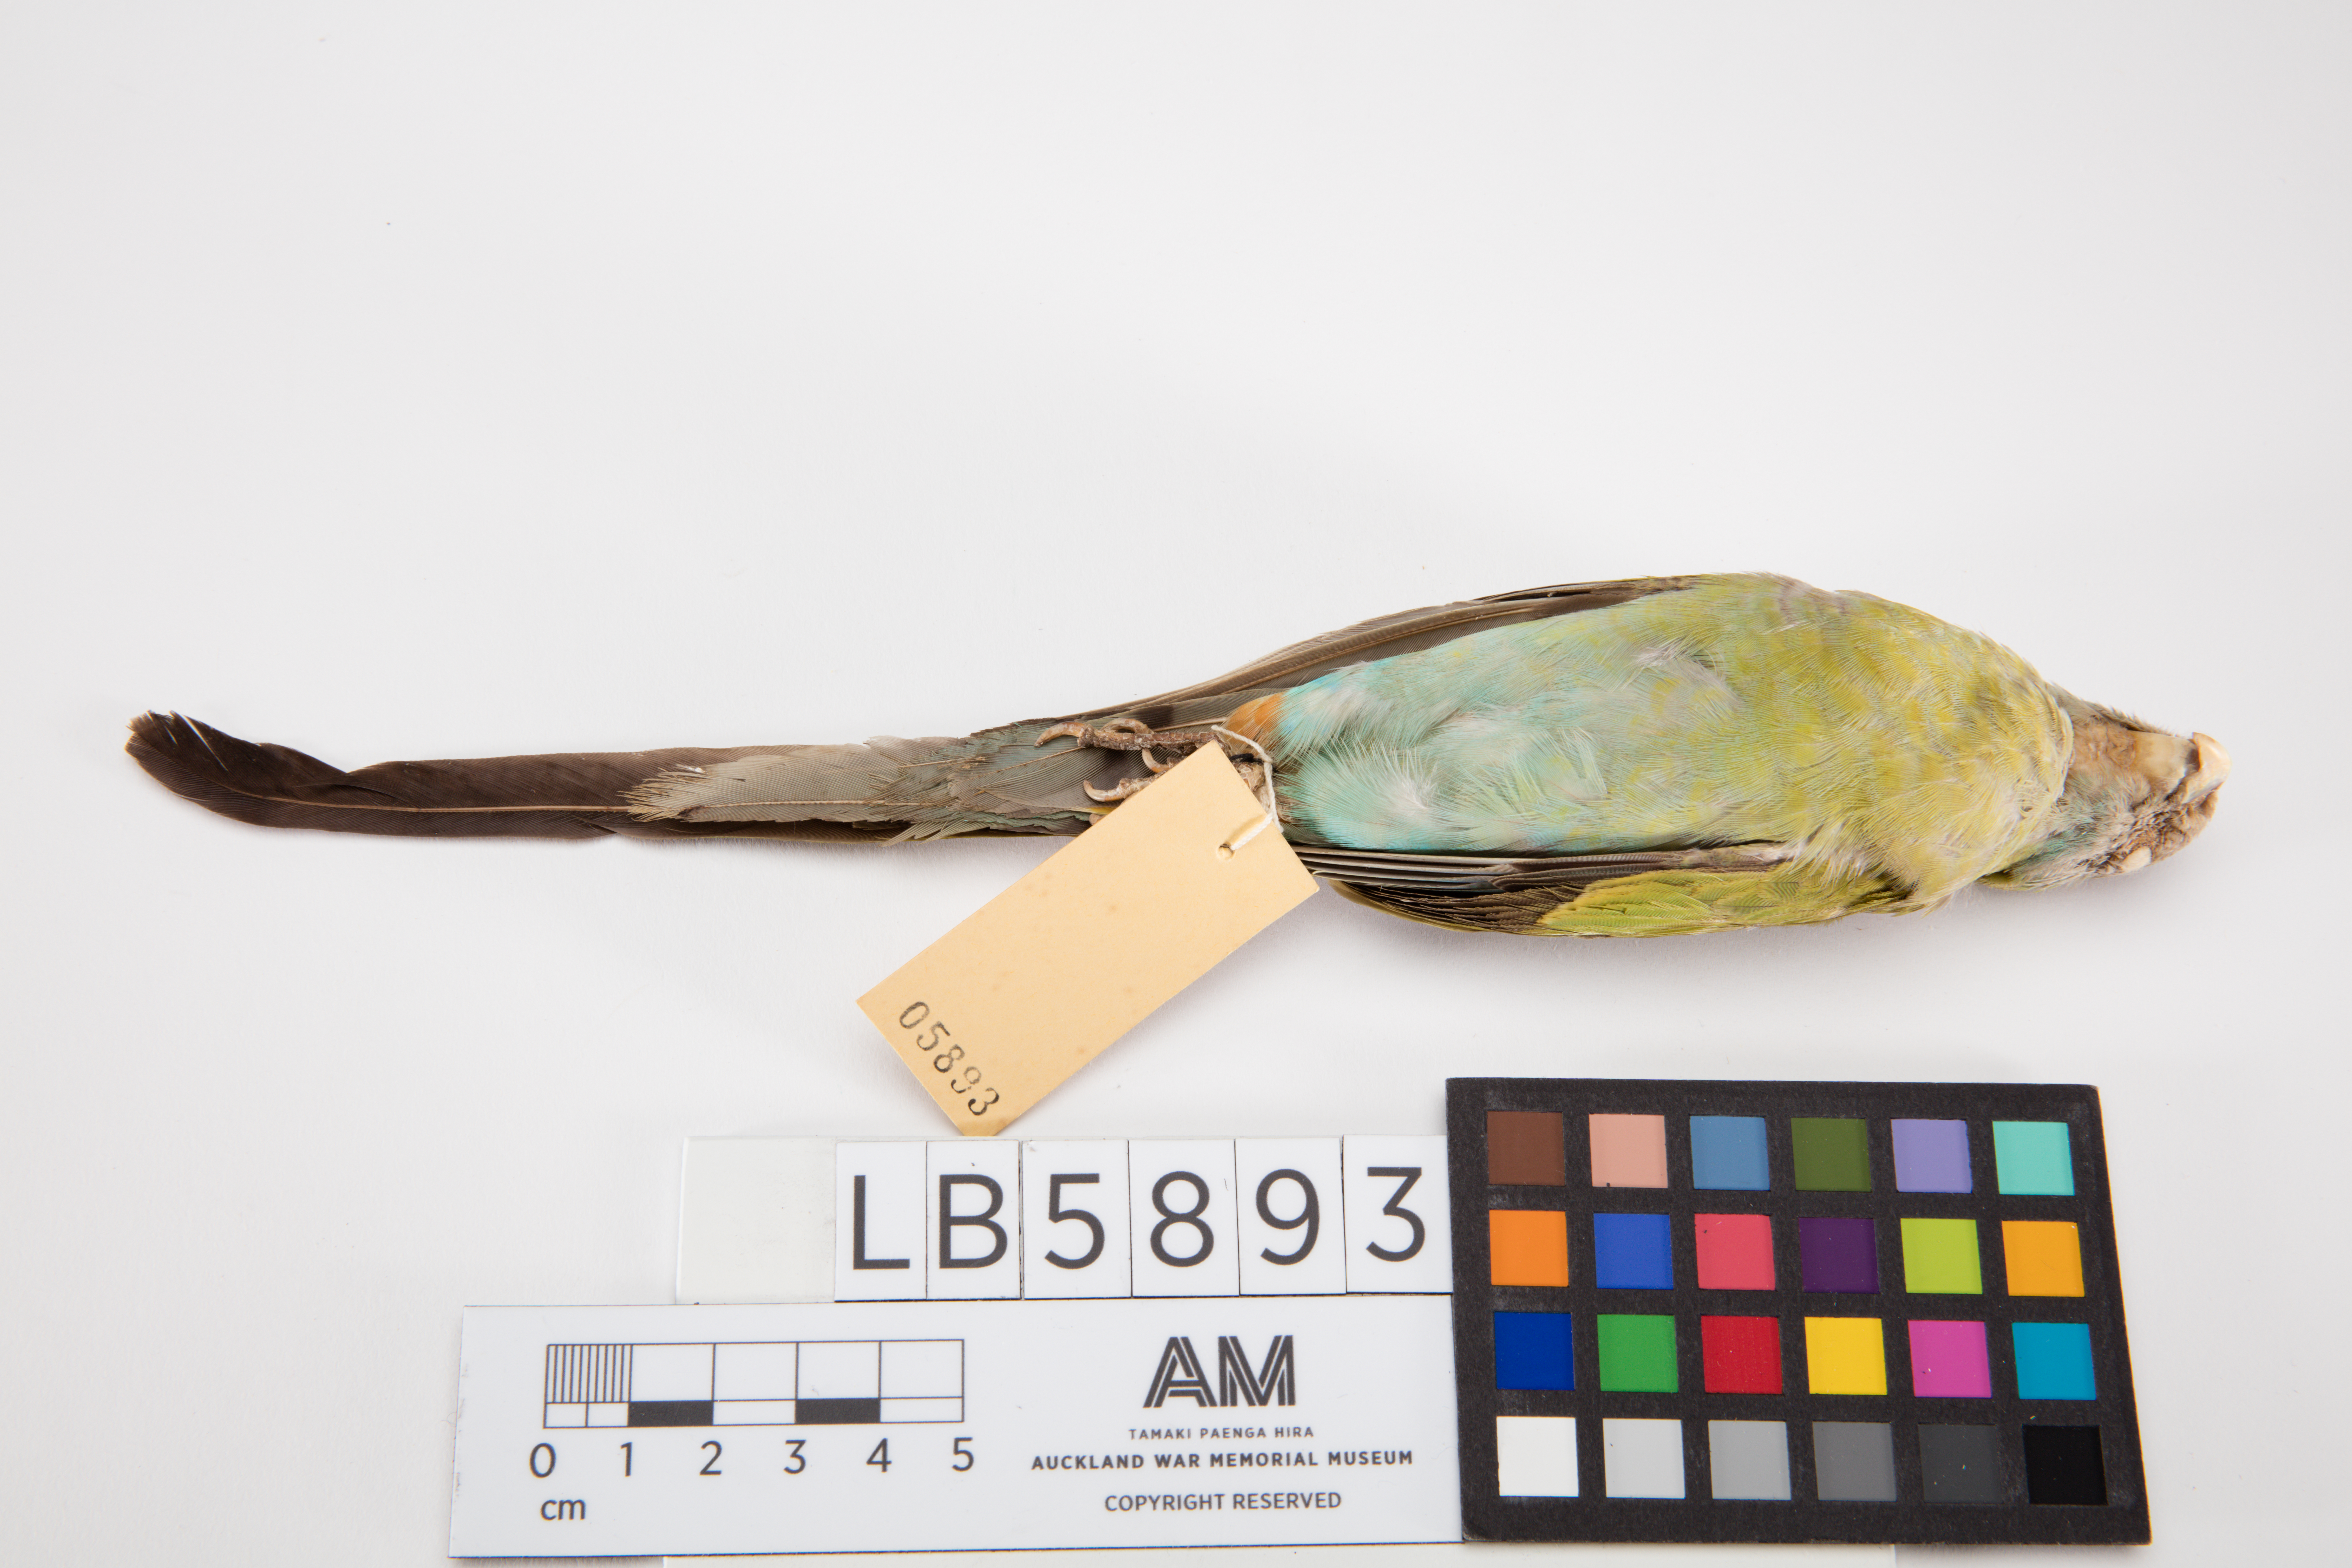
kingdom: Animalia
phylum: Chordata
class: Aves
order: Psittaciformes
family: Psittacidae
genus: Psephotus
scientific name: Psephotus dissimilis
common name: Hooded parrot
